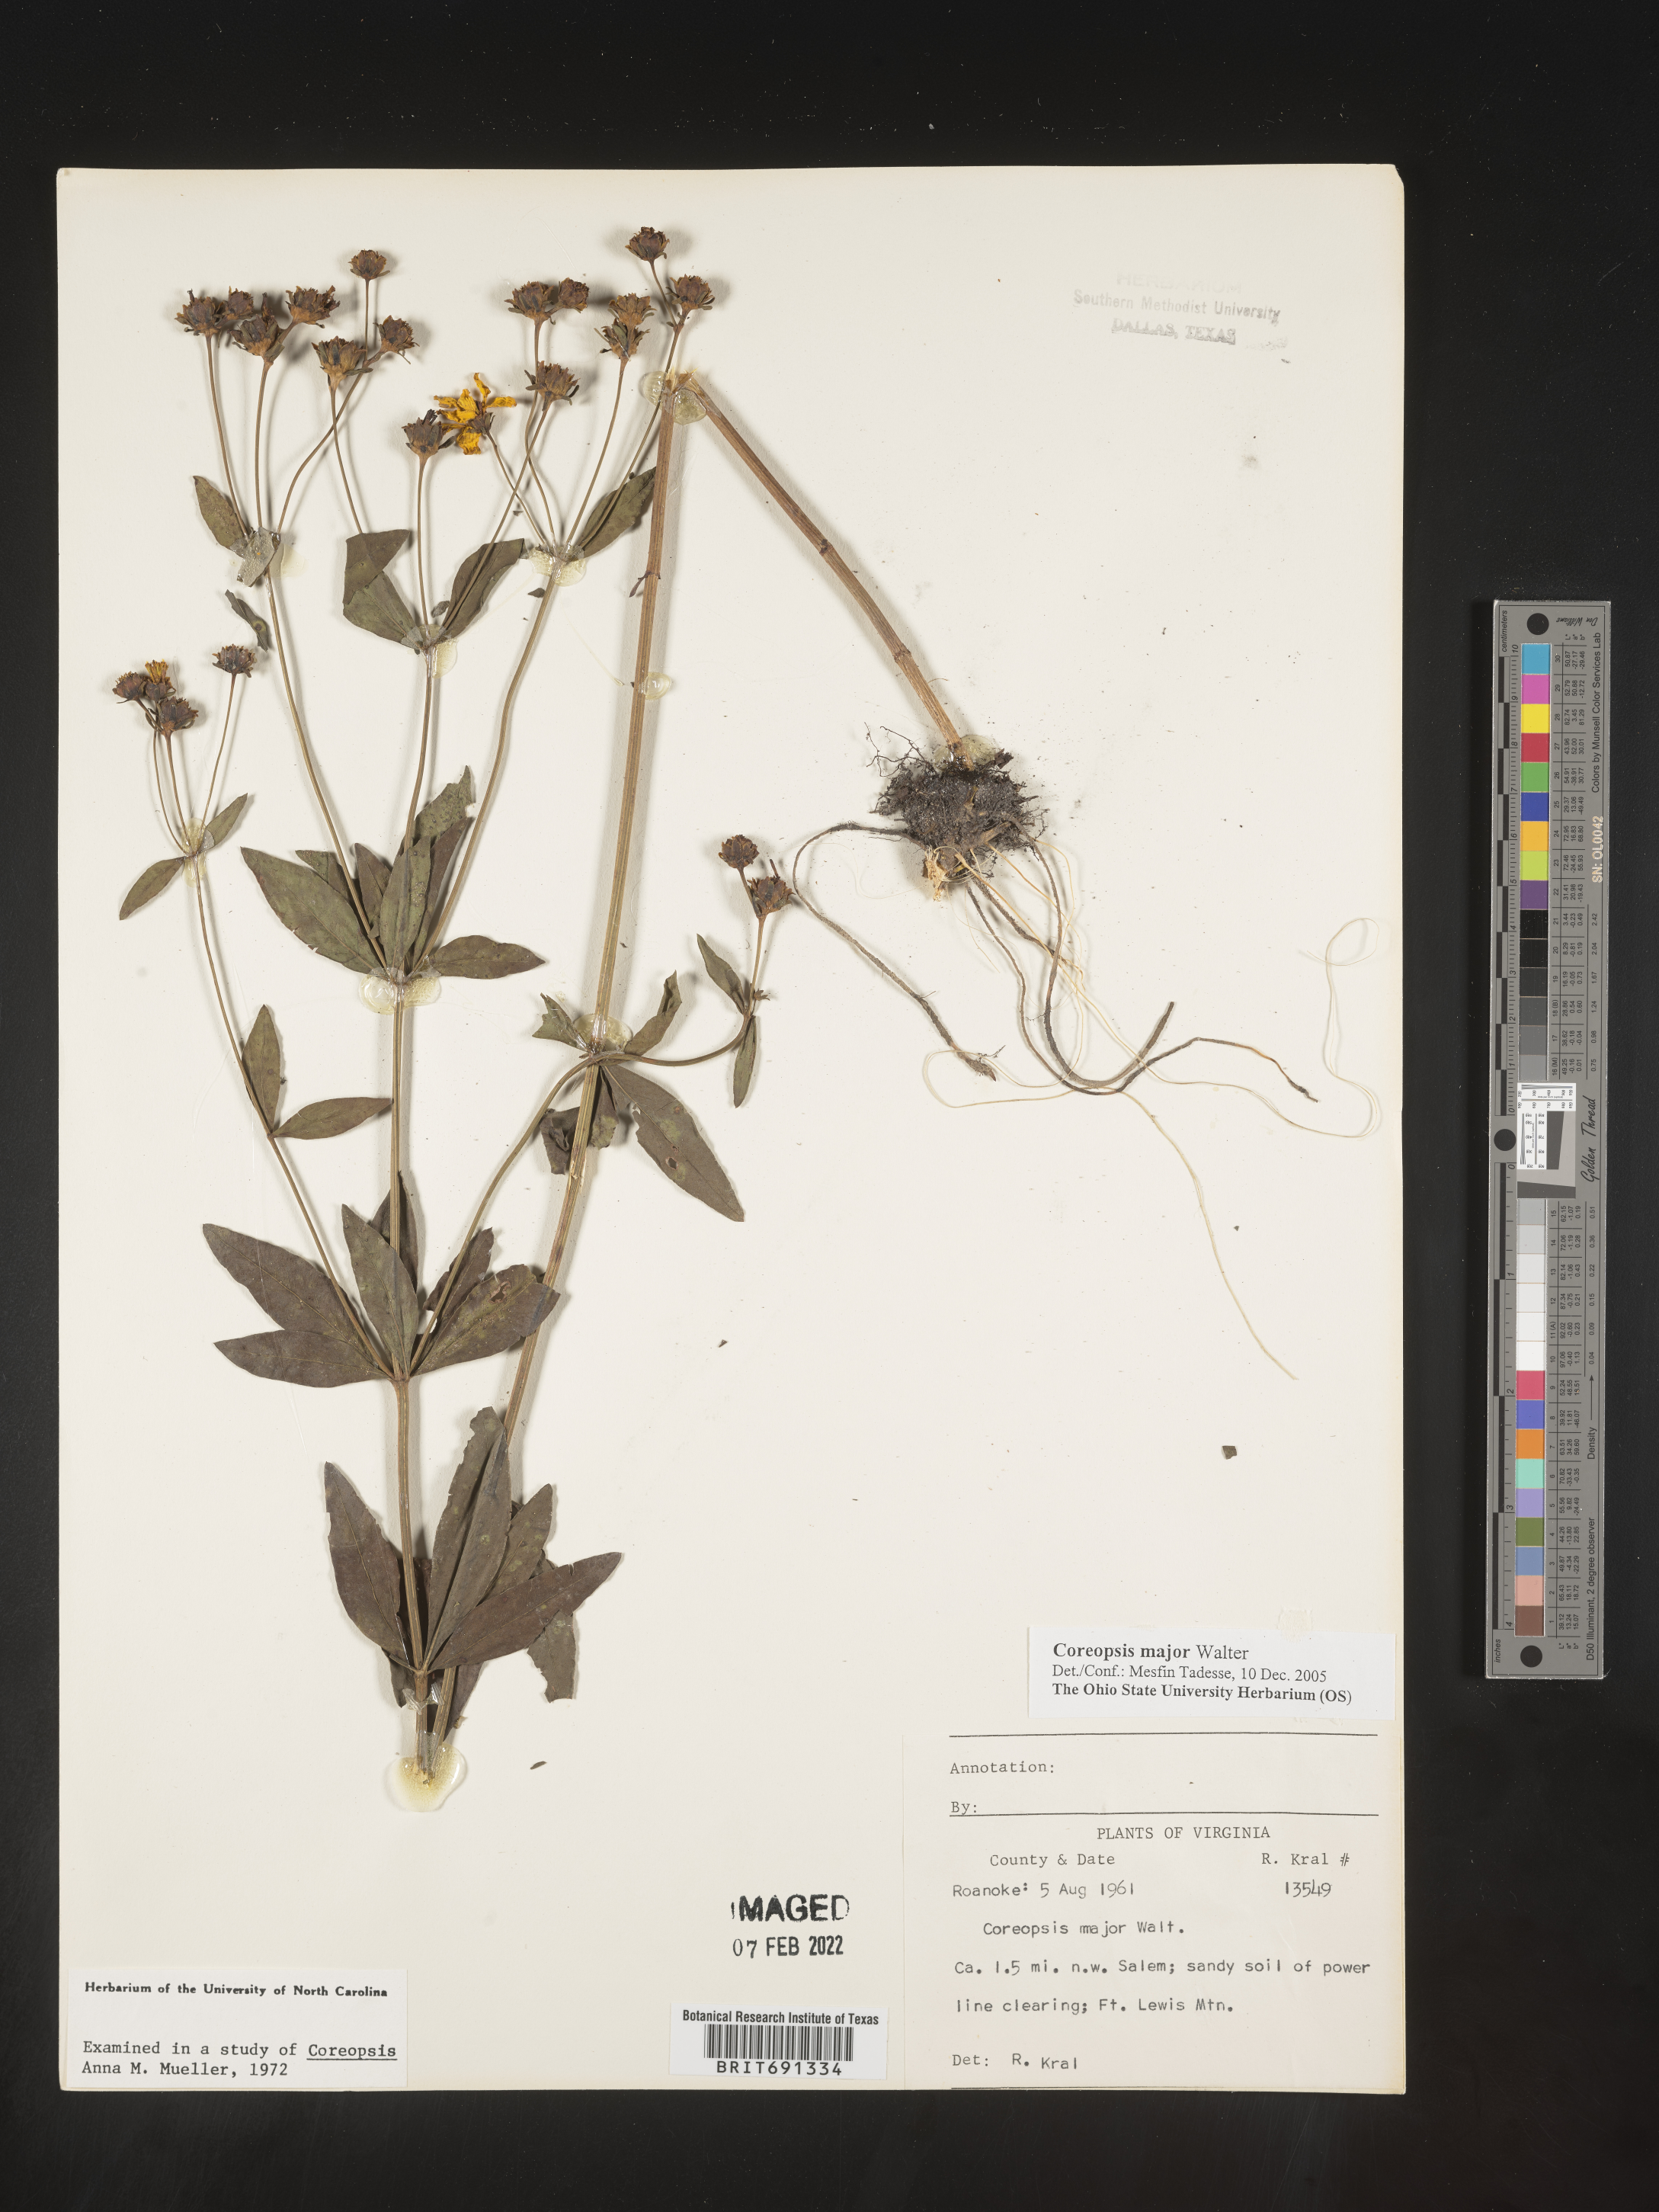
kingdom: Plantae
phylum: Tracheophyta
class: Magnoliopsida
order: Asterales
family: Asteraceae
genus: Coreopsis
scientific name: Coreopsis major
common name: Forest tickseed
